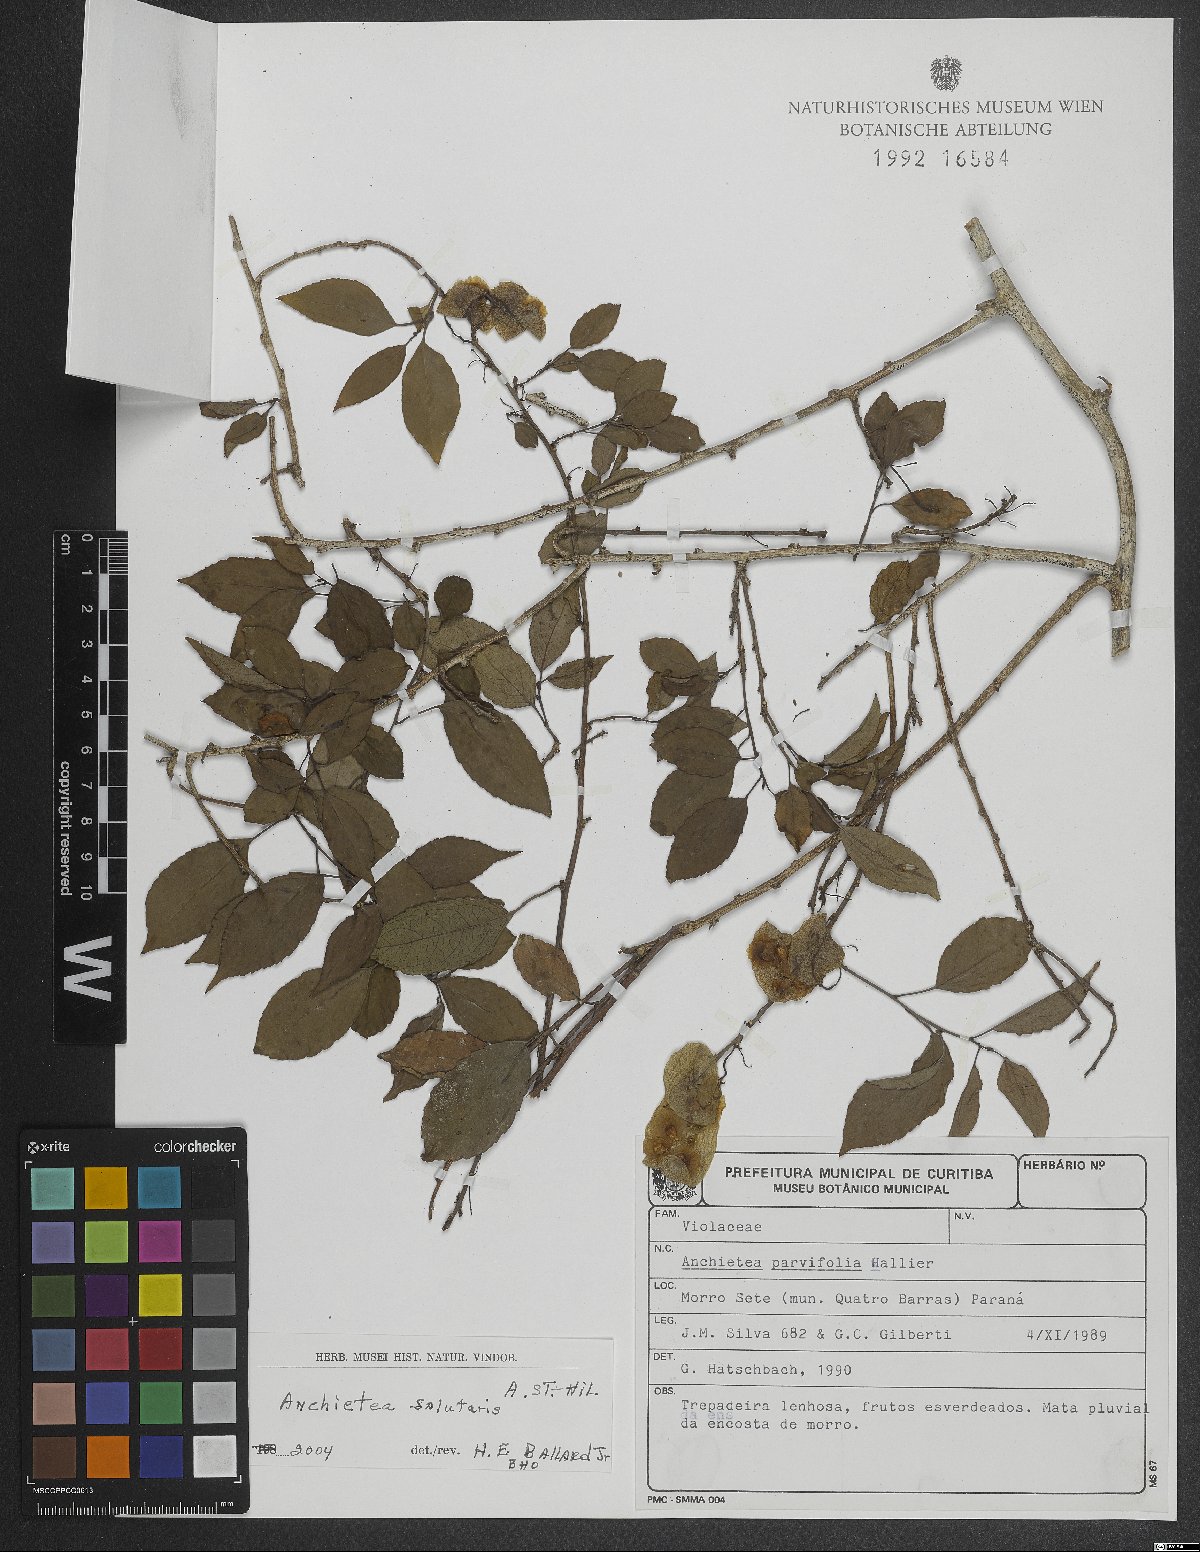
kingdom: Plantae
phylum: Tracheophyta
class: Magnoliopsida
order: Malpighiales
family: Violaceae
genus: Anchietea
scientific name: Anchietea pyrifolia
